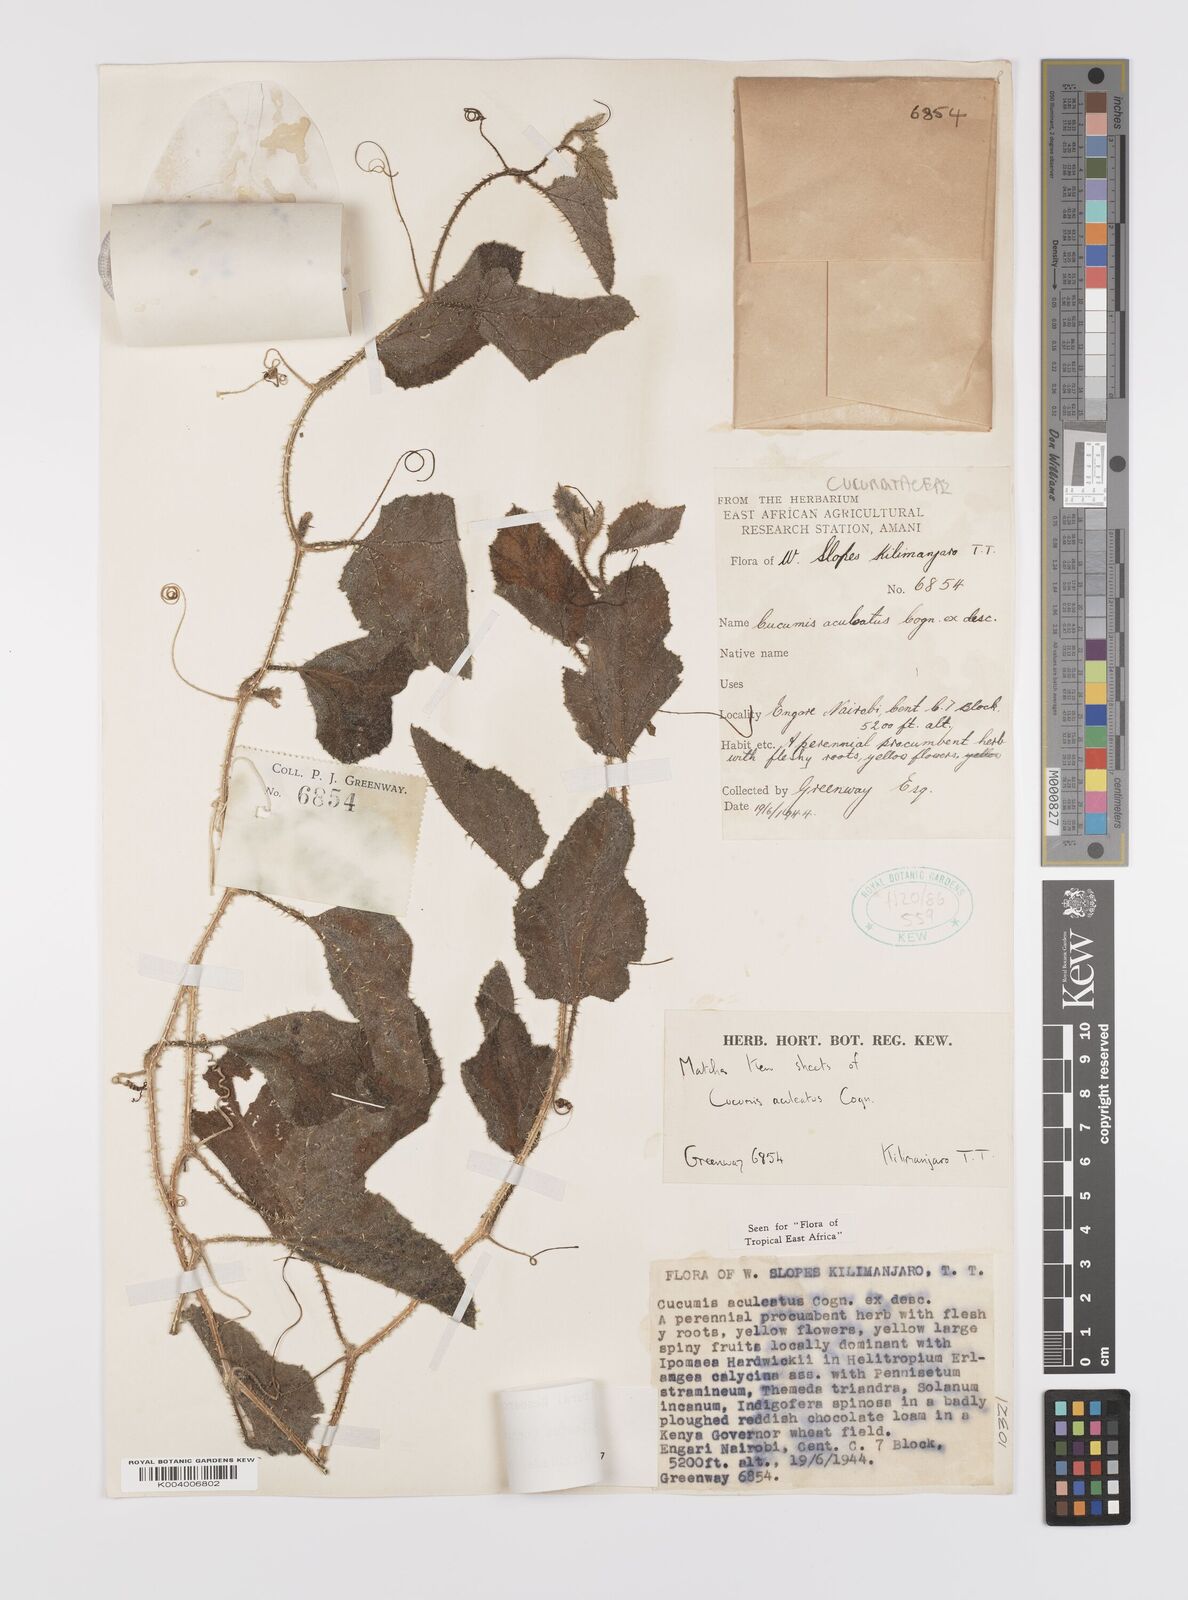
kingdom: Plantae
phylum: Tracheophyta
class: Magnoliopsida
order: Cucurbitales
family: Cucurbitaceae
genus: Cucumis
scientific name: Cucumis aculeatus
